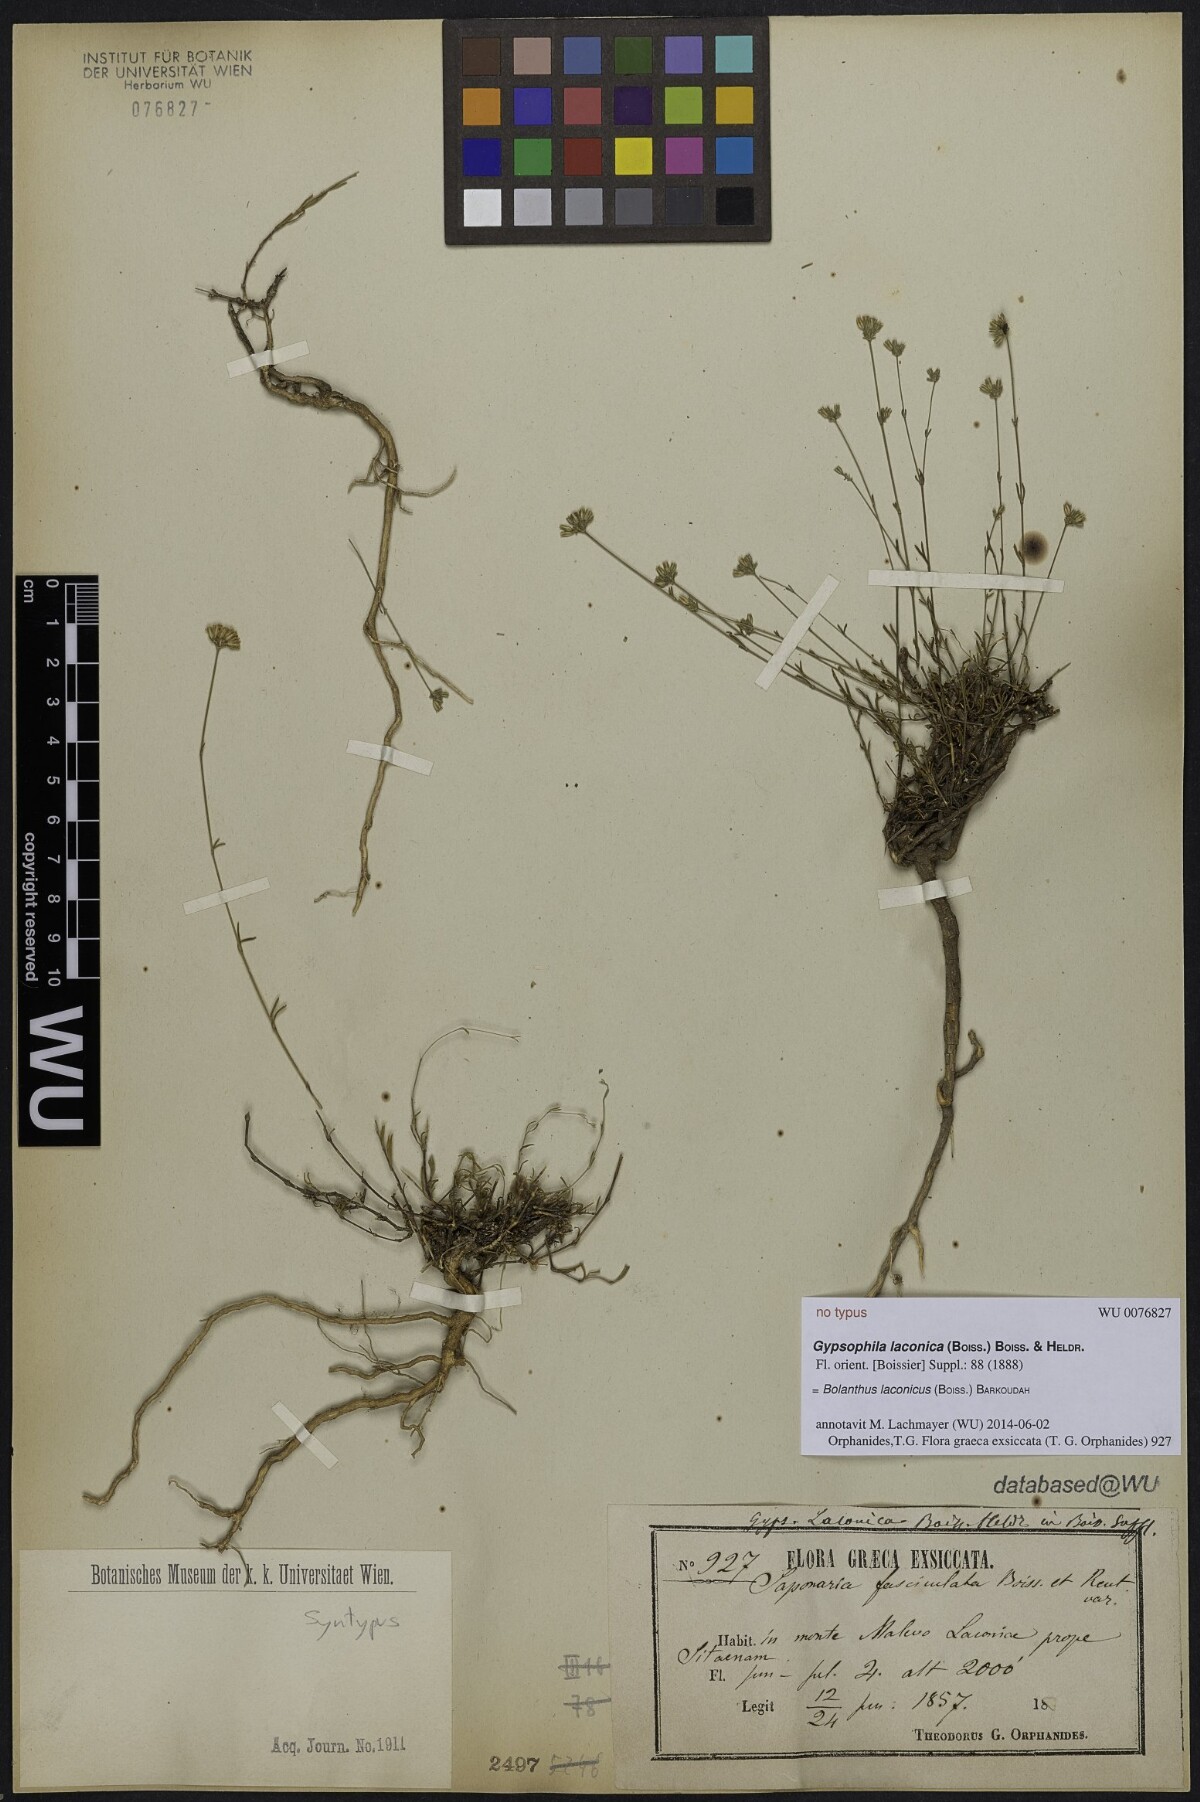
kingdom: Plantae
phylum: Tracheophyta
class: Magnoliopsida
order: Caryophyllales
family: Caryophyllaceae
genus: Graecobolanthus
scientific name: Graecobolanthus laconicus
